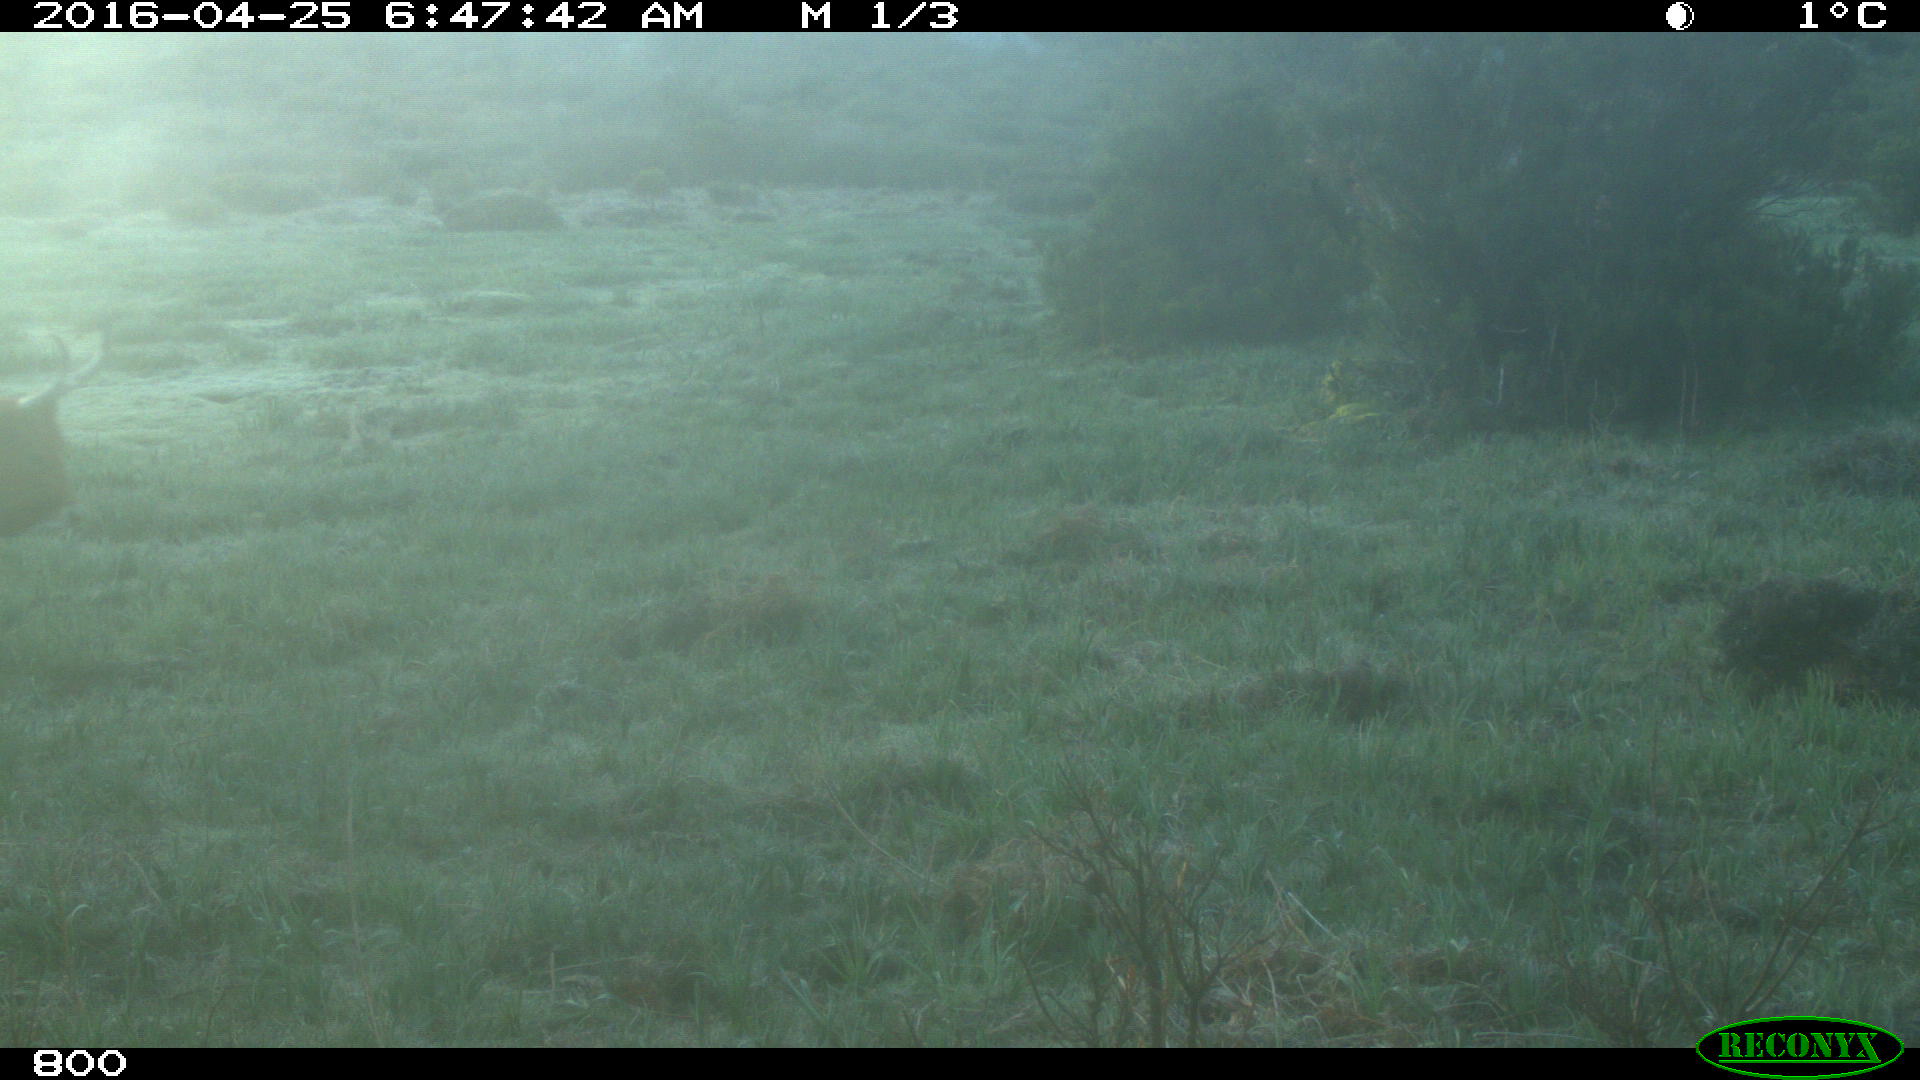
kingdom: Animalia
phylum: Chordata
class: Mammalia
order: Artiodactyla
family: Bovidae
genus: Bos
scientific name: Bos taurus
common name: Domesticated cattle
